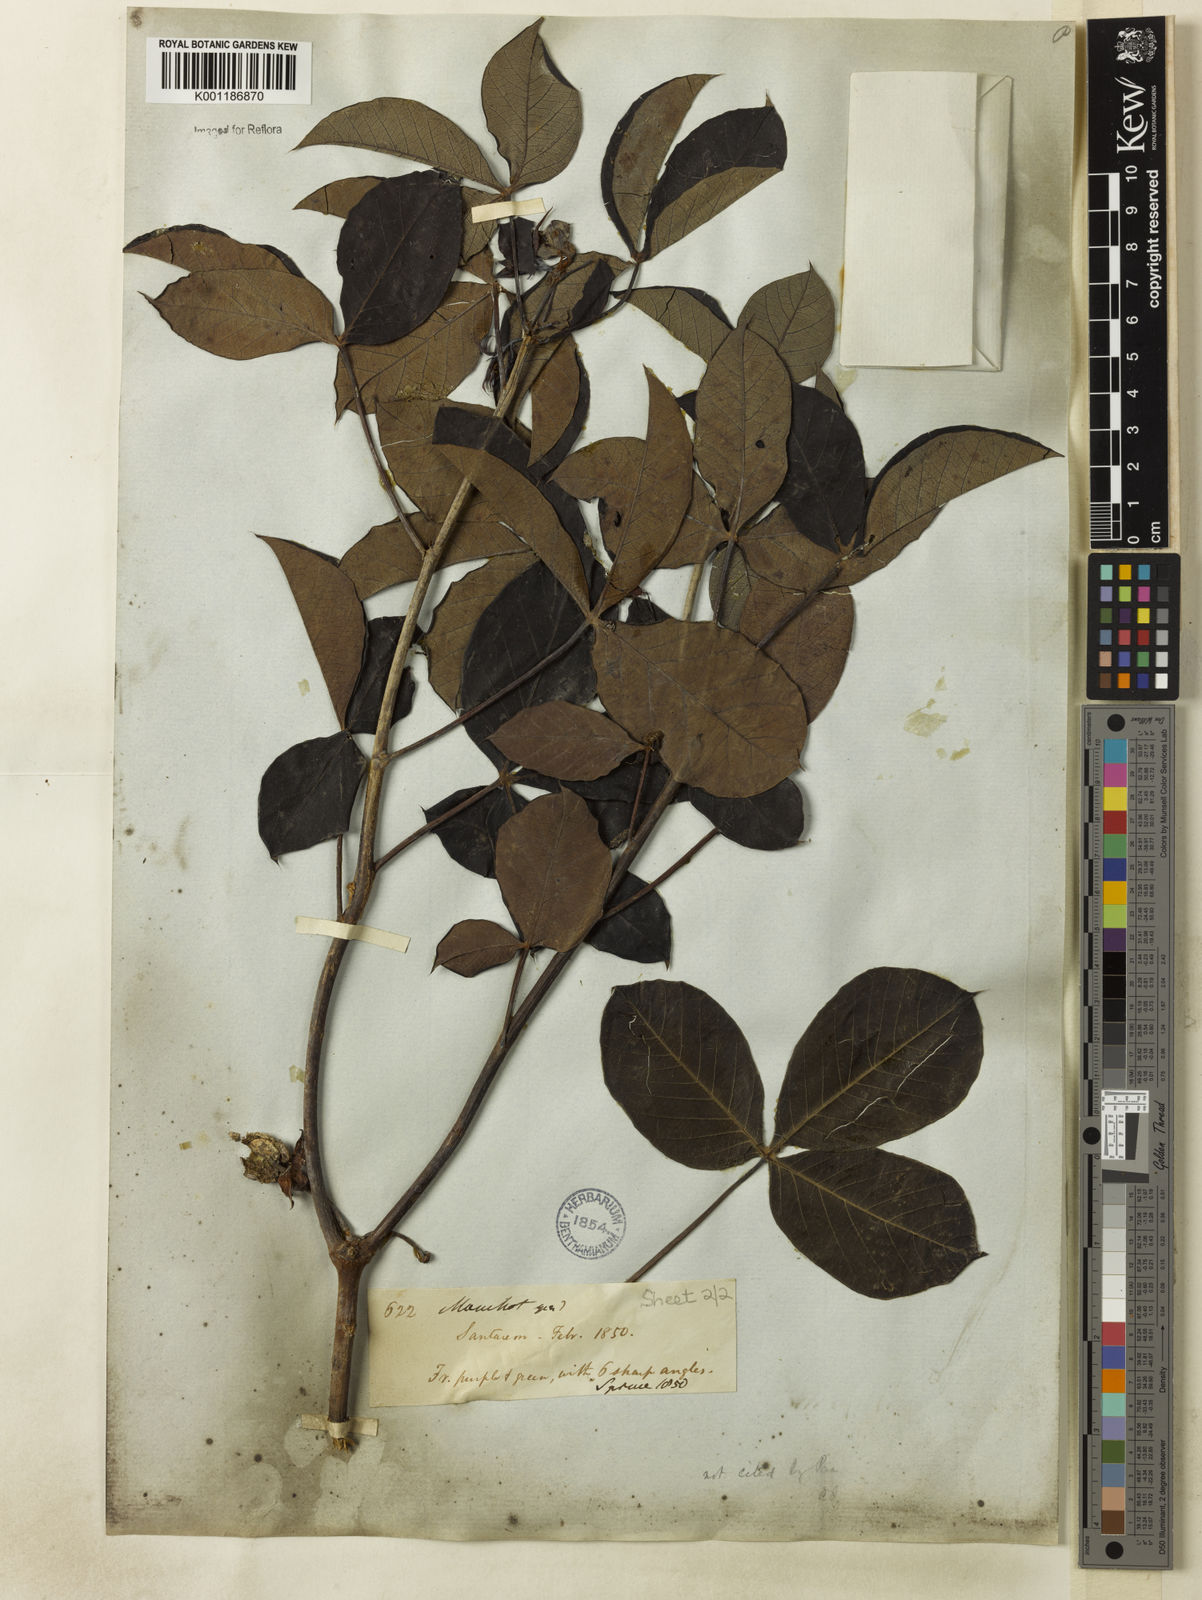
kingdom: Plantae
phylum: Tracheophyta
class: Magnoliopsida
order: Malpighiales
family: Euphorbiaceae
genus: Manihot
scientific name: Manihot
